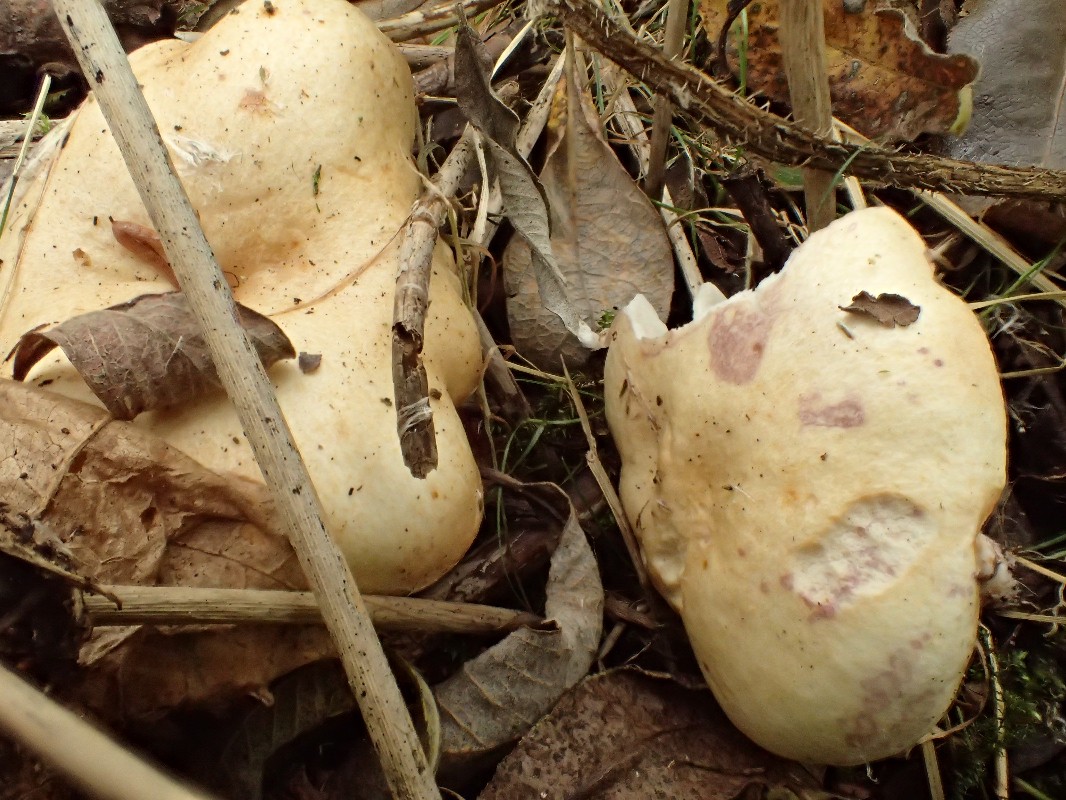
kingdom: Fungi
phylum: Basidiomycota
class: Agaricomycetes
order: Russulales
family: Russulaceae
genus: Lactarius
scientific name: Lactarius aspideus
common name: pile-mælkehat
